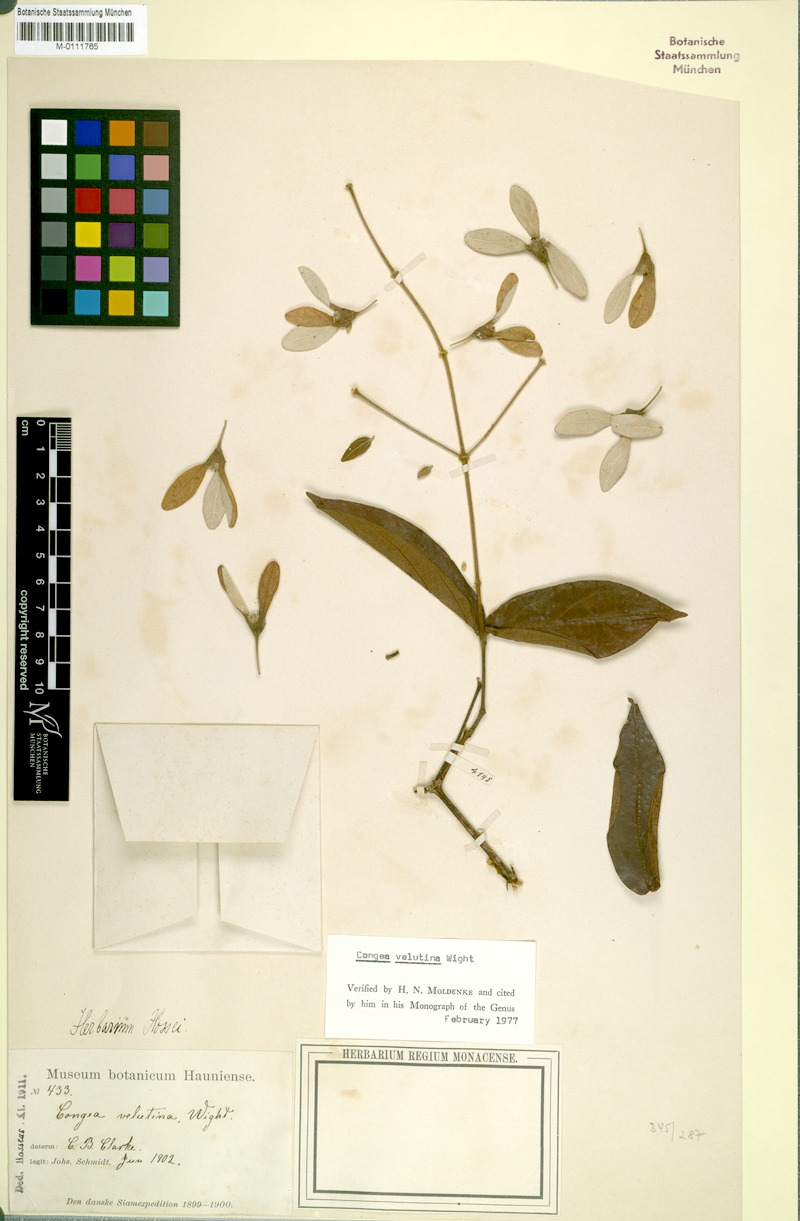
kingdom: Plantae
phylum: Tracheophyta
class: Magnoliopsida
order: Lamiales
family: Lamiaceae
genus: Congea
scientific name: Congea velutina
